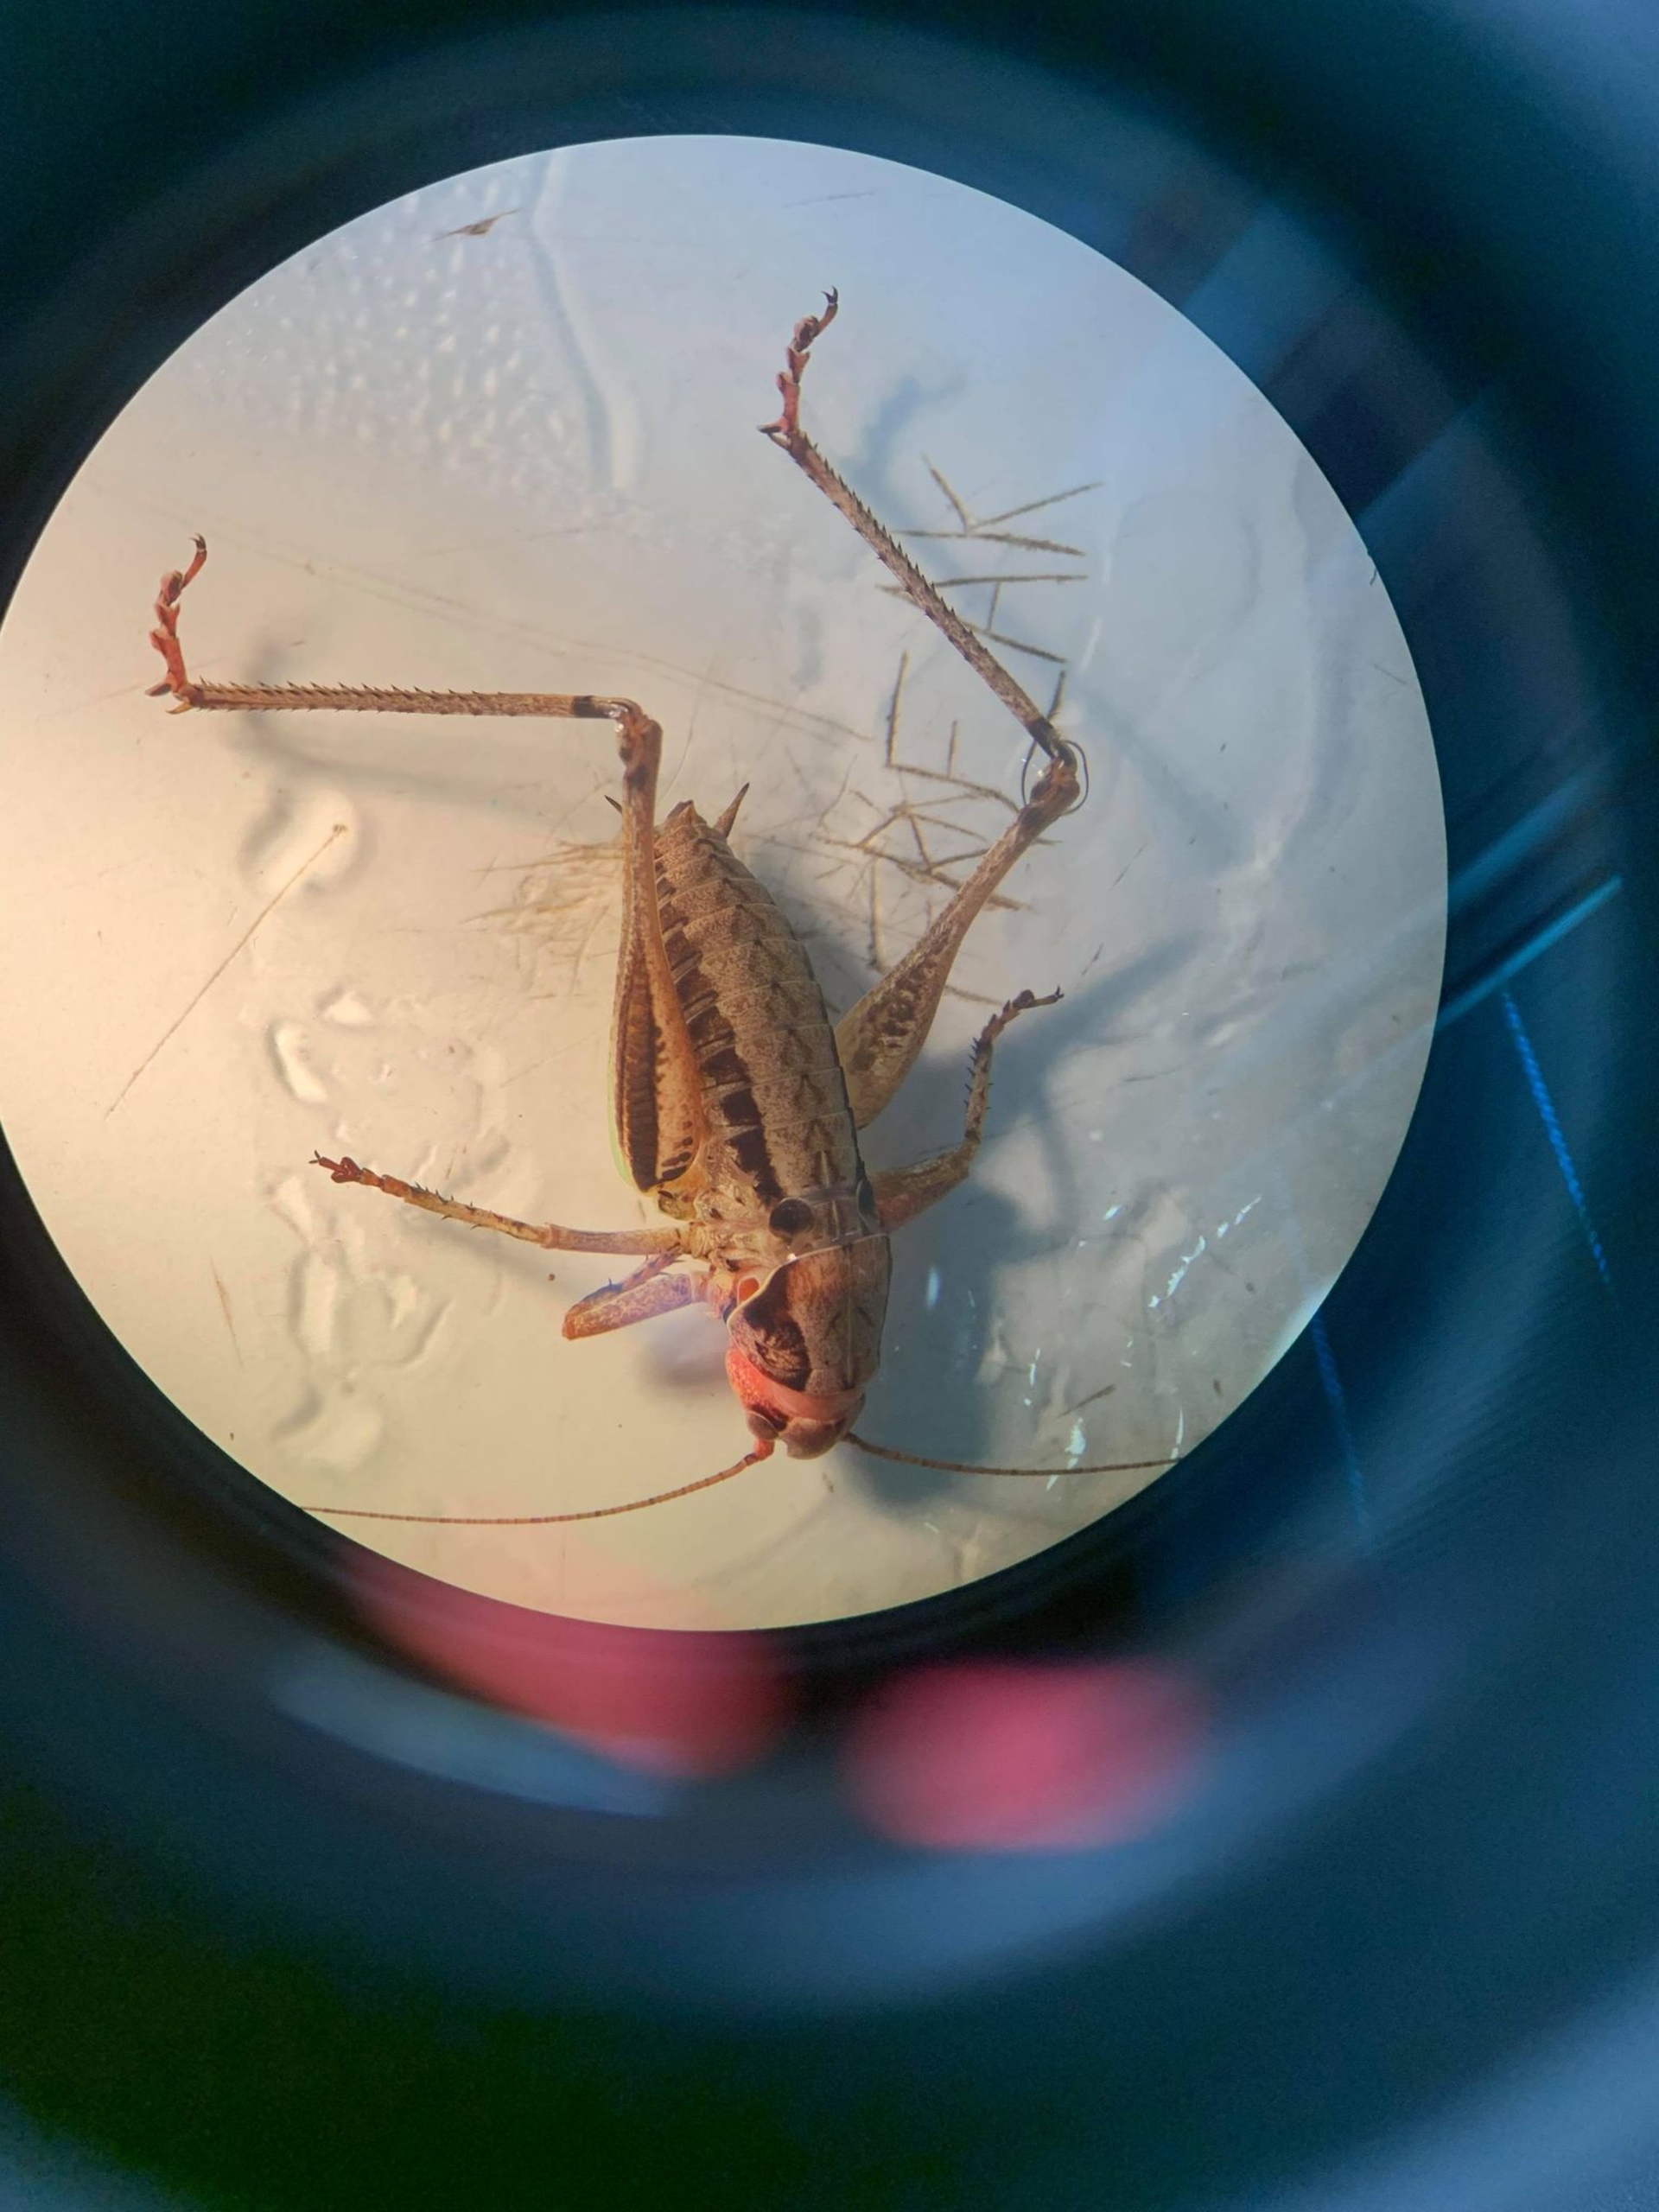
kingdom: Animalia
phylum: Arthropoda
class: Insecta
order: Orthoptera
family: Tettigoniidae
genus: Pholidoptera
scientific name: Pholidoptera griseoaptera
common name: Buskgræshoppe
